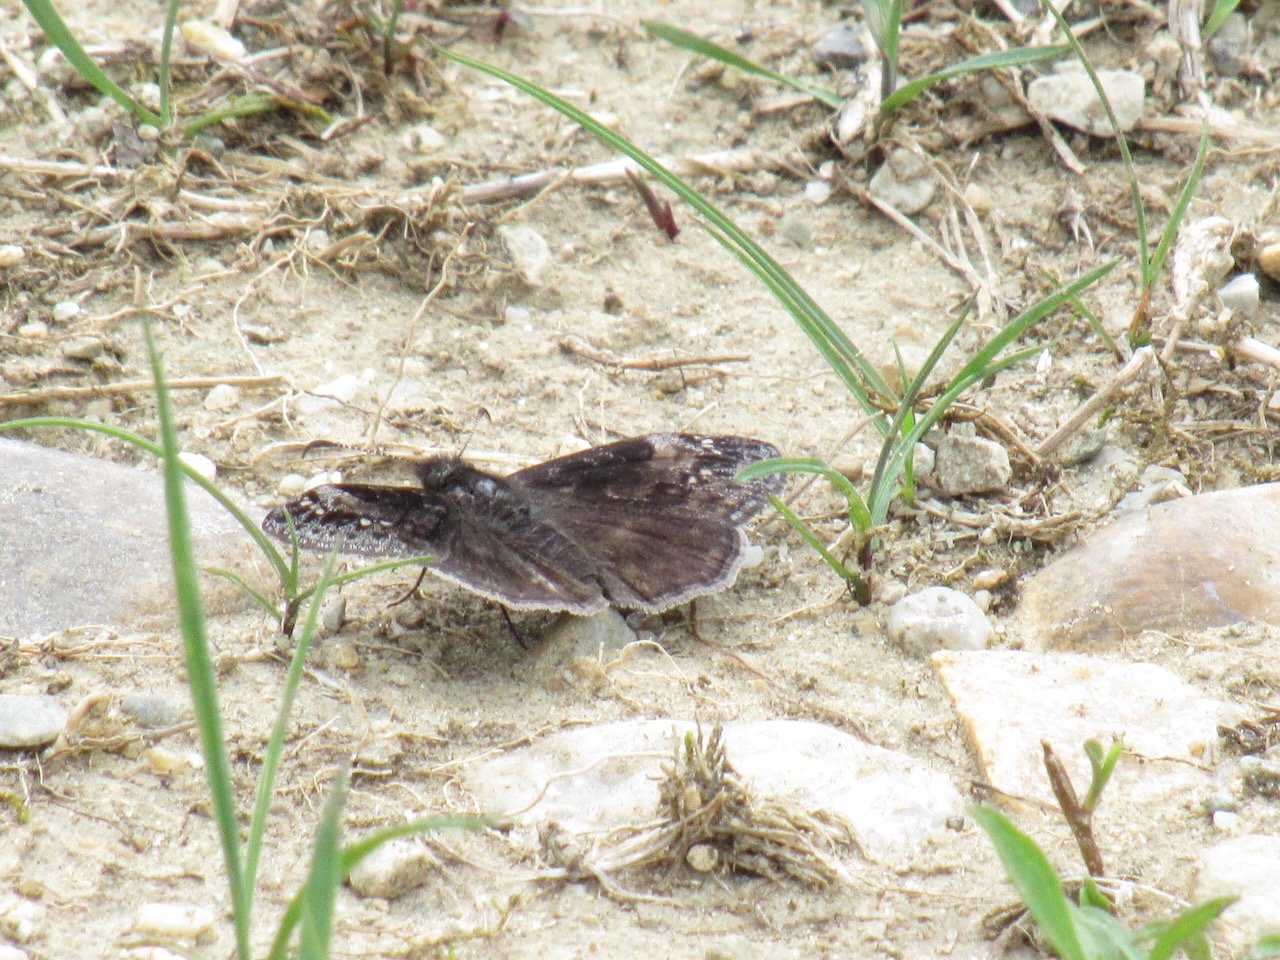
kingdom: Animalia
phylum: Arthropoda
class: Insecta
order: Lepidoptera
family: Hesperiidae
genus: Gesta
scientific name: Gesta
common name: Wild Indigo Duskywing
